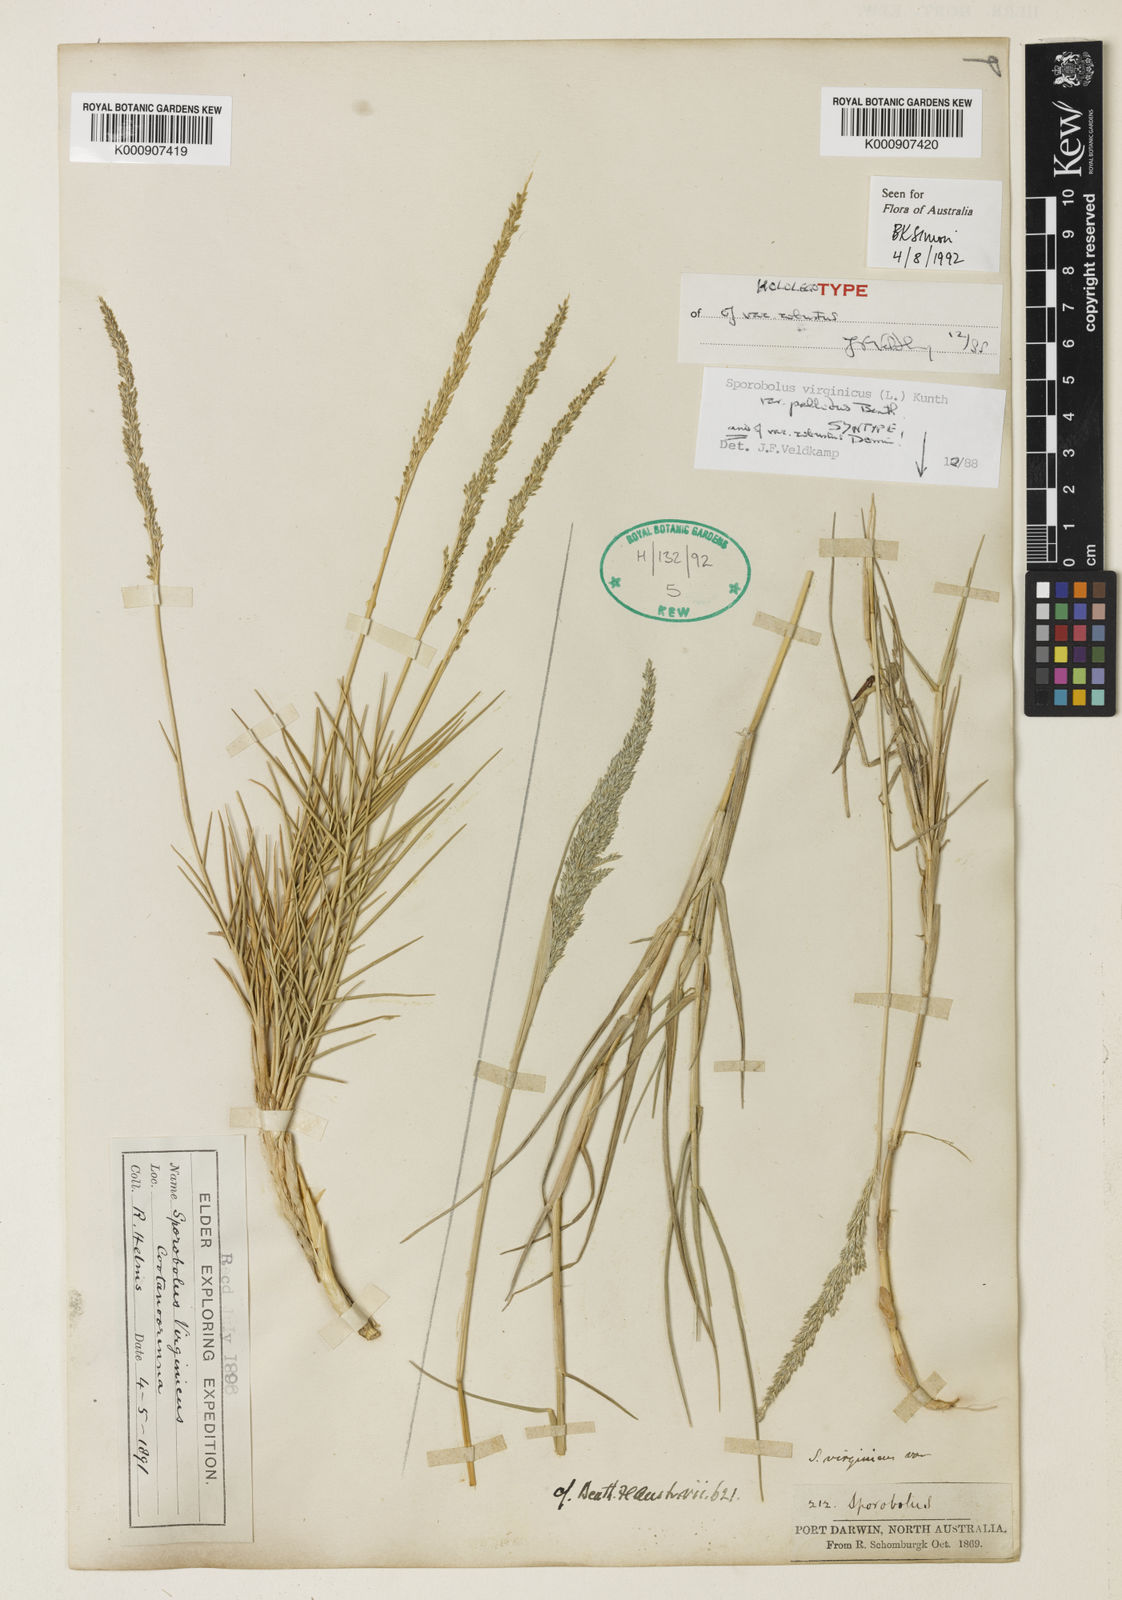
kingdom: Plantae
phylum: Tracheophyta
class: Liliopsida
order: Poales
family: Poaceae
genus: Sporobolus
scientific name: Sporobolus virginicus
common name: Beach dropseed
